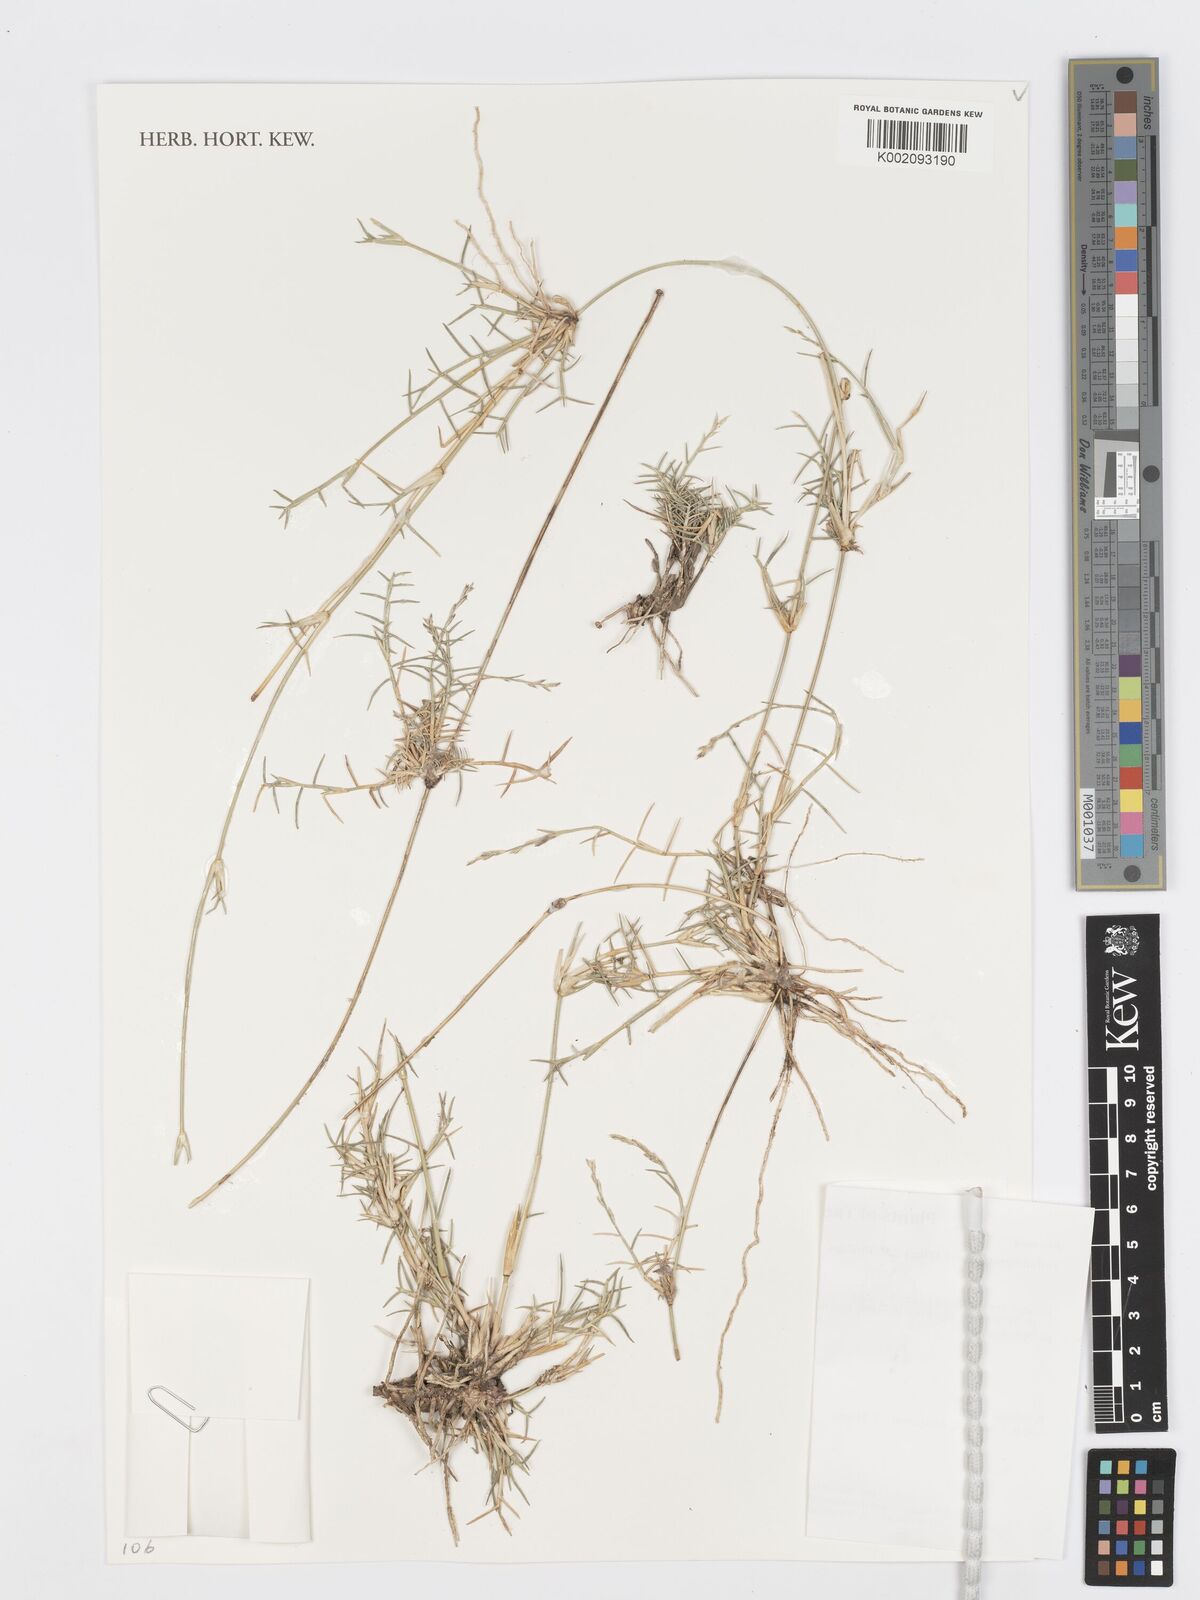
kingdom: Plantae
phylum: Tracheophyta
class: Liliopsida
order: Poales
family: Poaceae
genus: Psilolemma
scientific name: Psilolemma jaegeri
